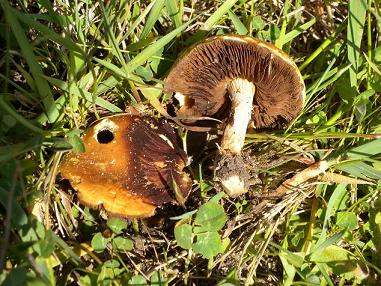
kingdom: Fungi
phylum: Basidiomycota
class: Agaricomycetes
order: Agaricales
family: Strophariaceae
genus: Agrocybe
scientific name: Agrocybe praecox
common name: tidlig agerhat
